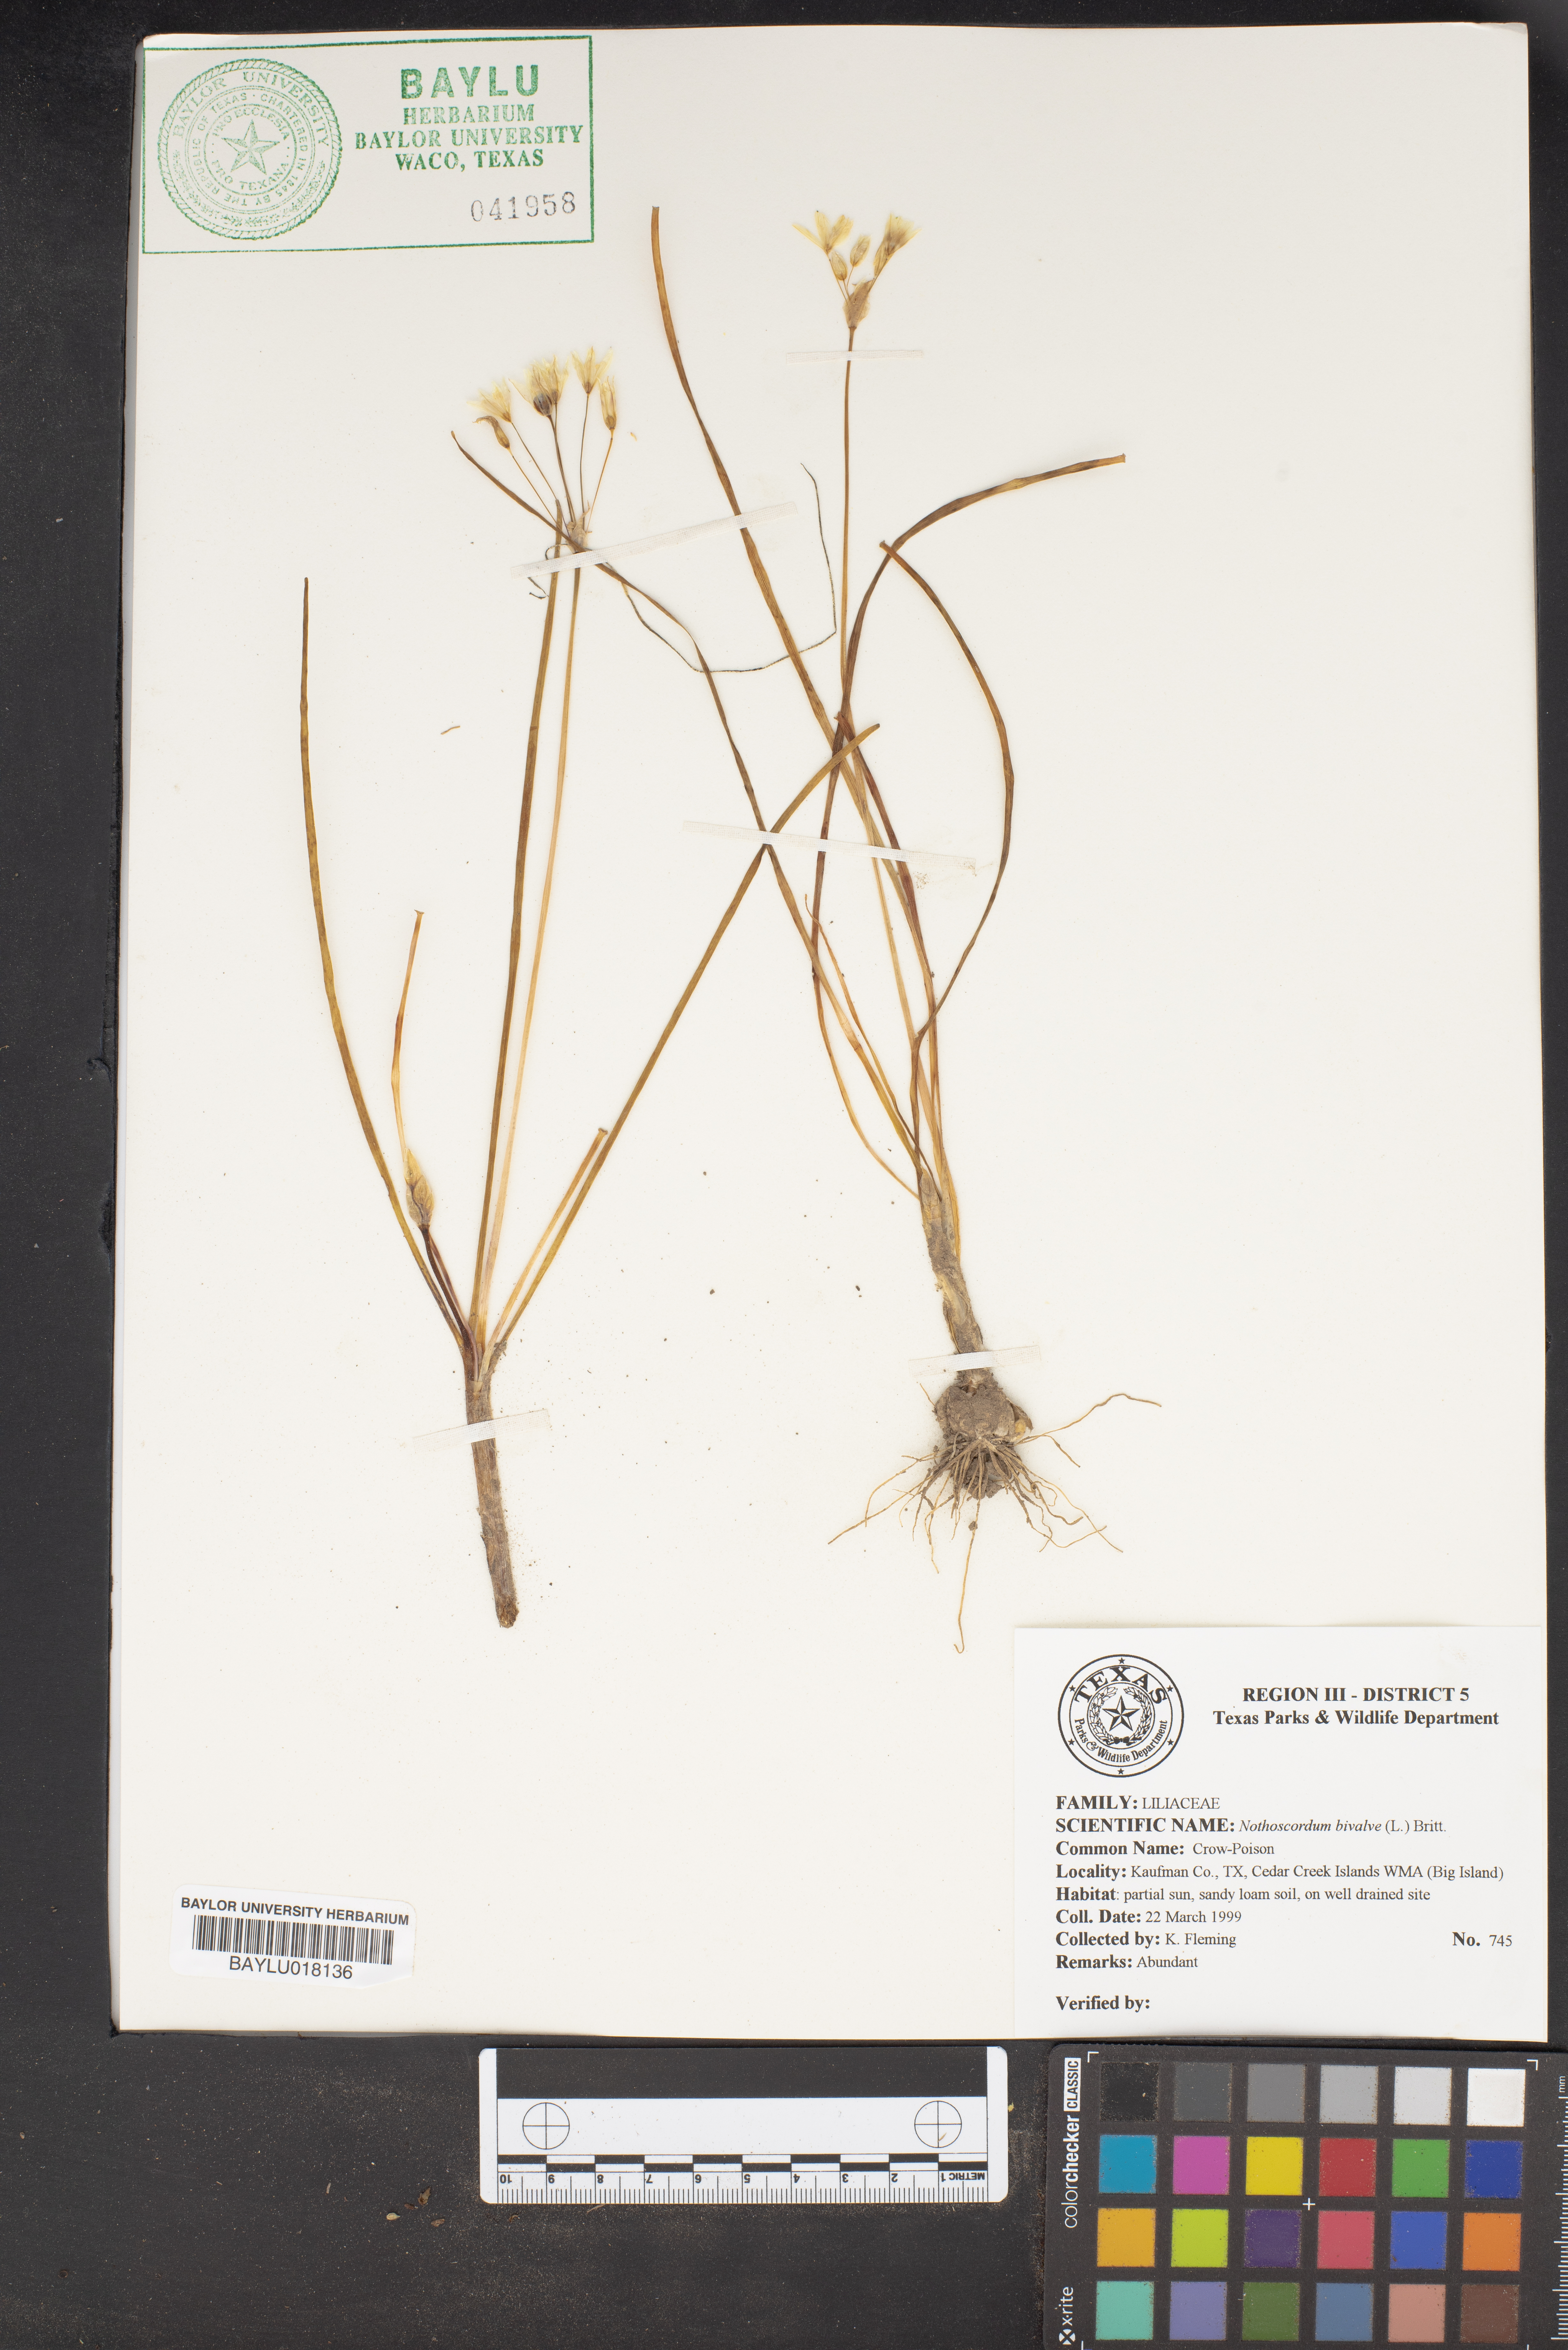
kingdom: Plantae
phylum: Tracheophyta
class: Liliopsida
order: Asparagales
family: Amaryllidaceae
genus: Nothoscordum
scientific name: Nothoscordum bivalve
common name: Crow-poison
